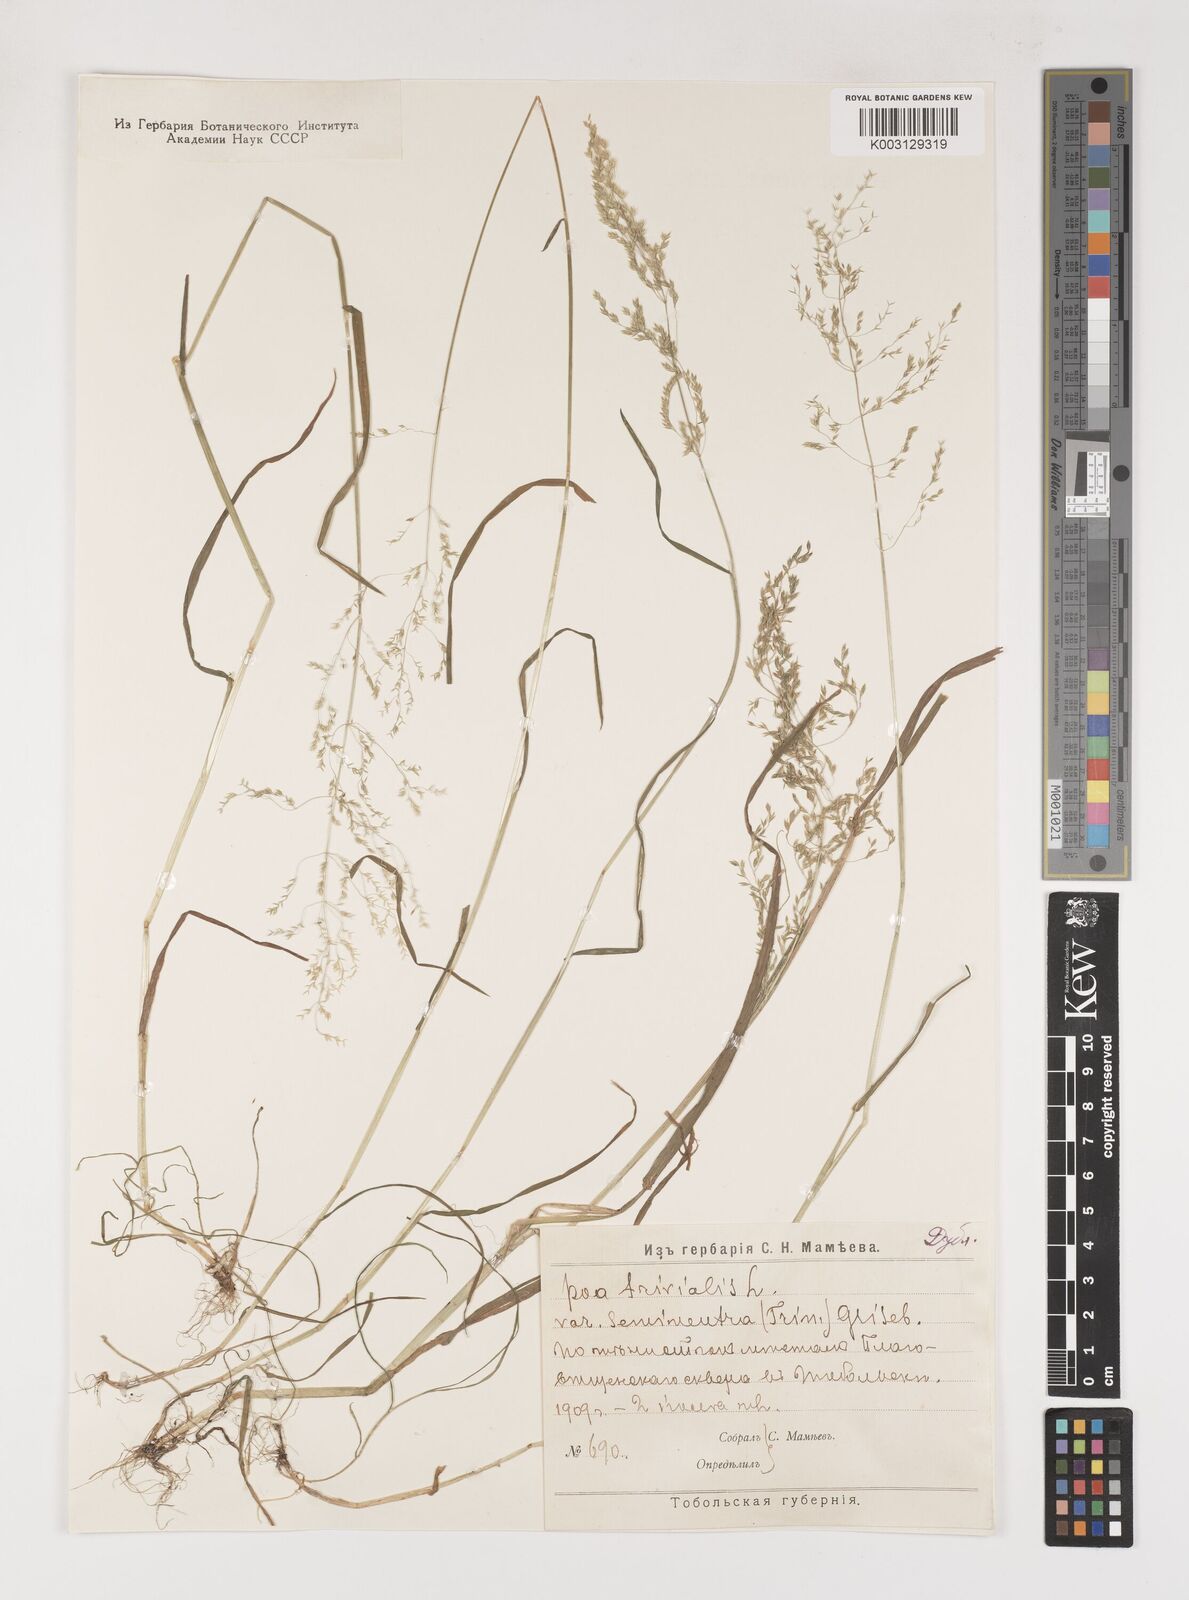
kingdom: Plantae
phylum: Tracheophyta
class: Liliopsida
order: Poales
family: Poaceae
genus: Poa
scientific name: Poa trivialis
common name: Rough bluegrass
